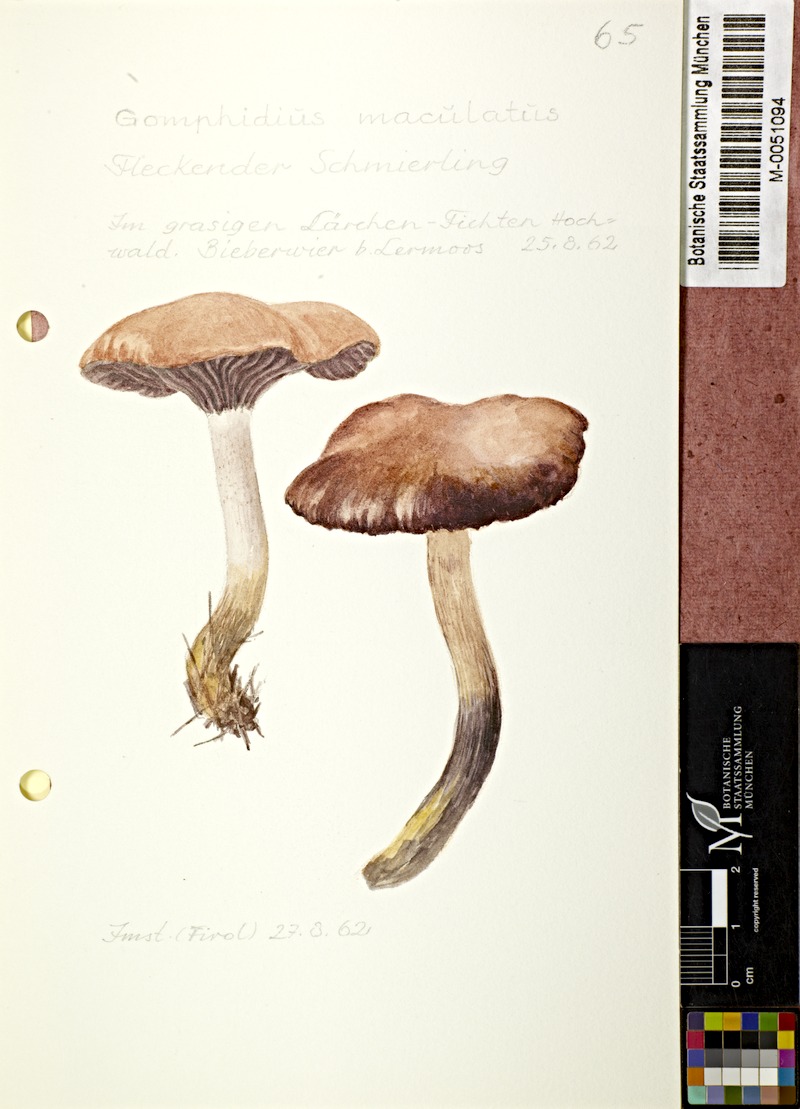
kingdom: Fungi
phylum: Basidiomycota
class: Agaricomycetes
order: Boletales
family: Gomphidiaceae
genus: Gomphidius
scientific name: Gomphidius maculatus
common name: Larch spike
